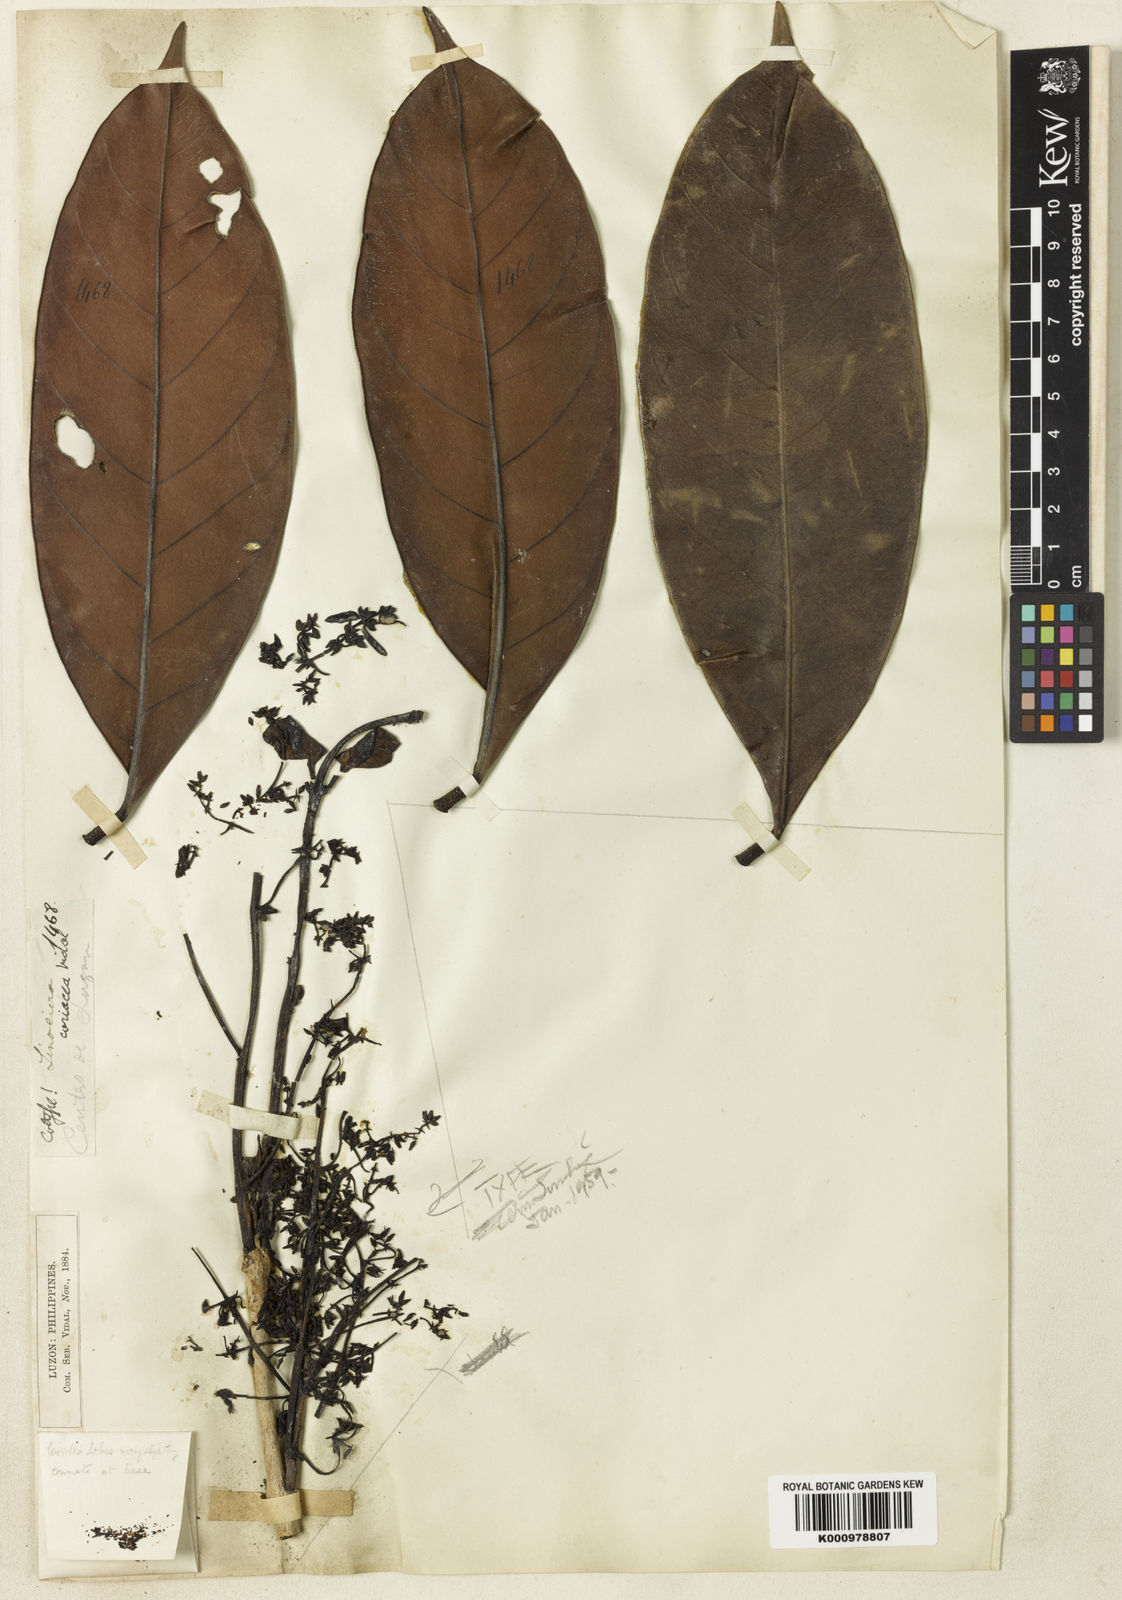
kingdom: Plantae
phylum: Tracheophyta
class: Magnoliopsida
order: Lamiales
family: Oleaceae
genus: Chionanthus
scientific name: Chionanthus coriaceus
